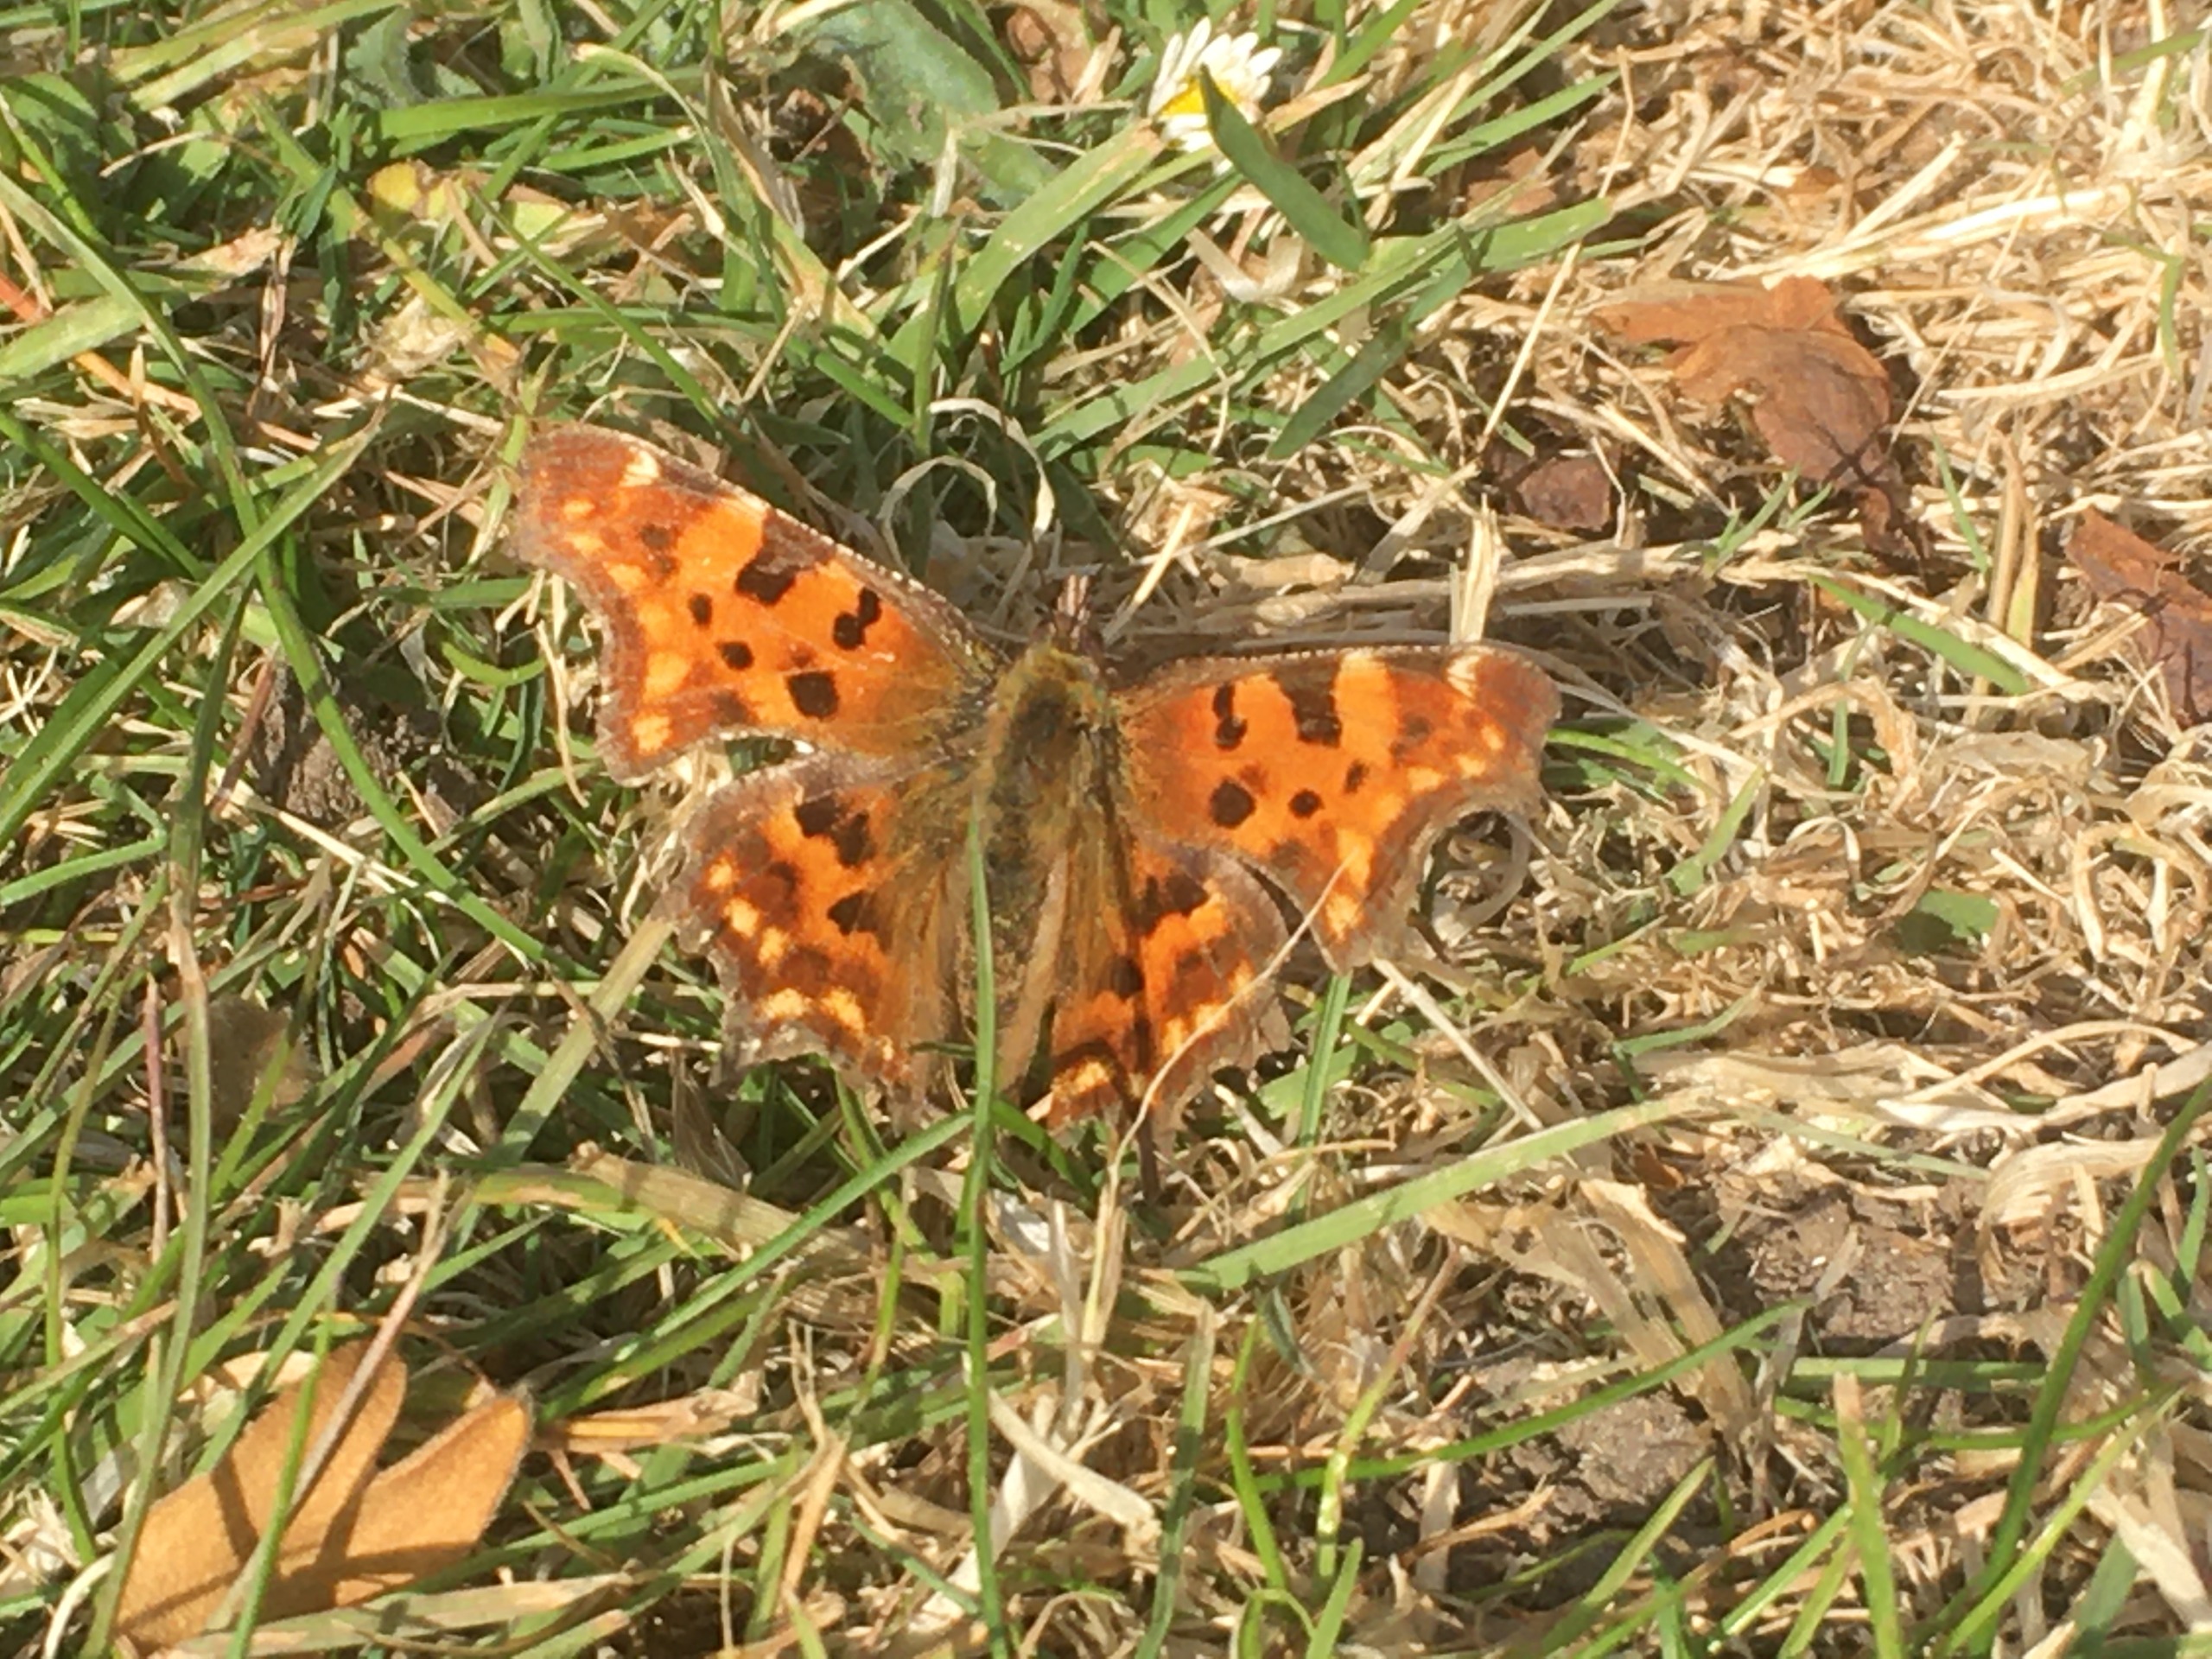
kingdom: Animalia
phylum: Arthropoda
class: Insecta
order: Lepidoptera
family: Nymphalidae
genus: Polygonia
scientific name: Polygonia c-album
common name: Det hvide C
